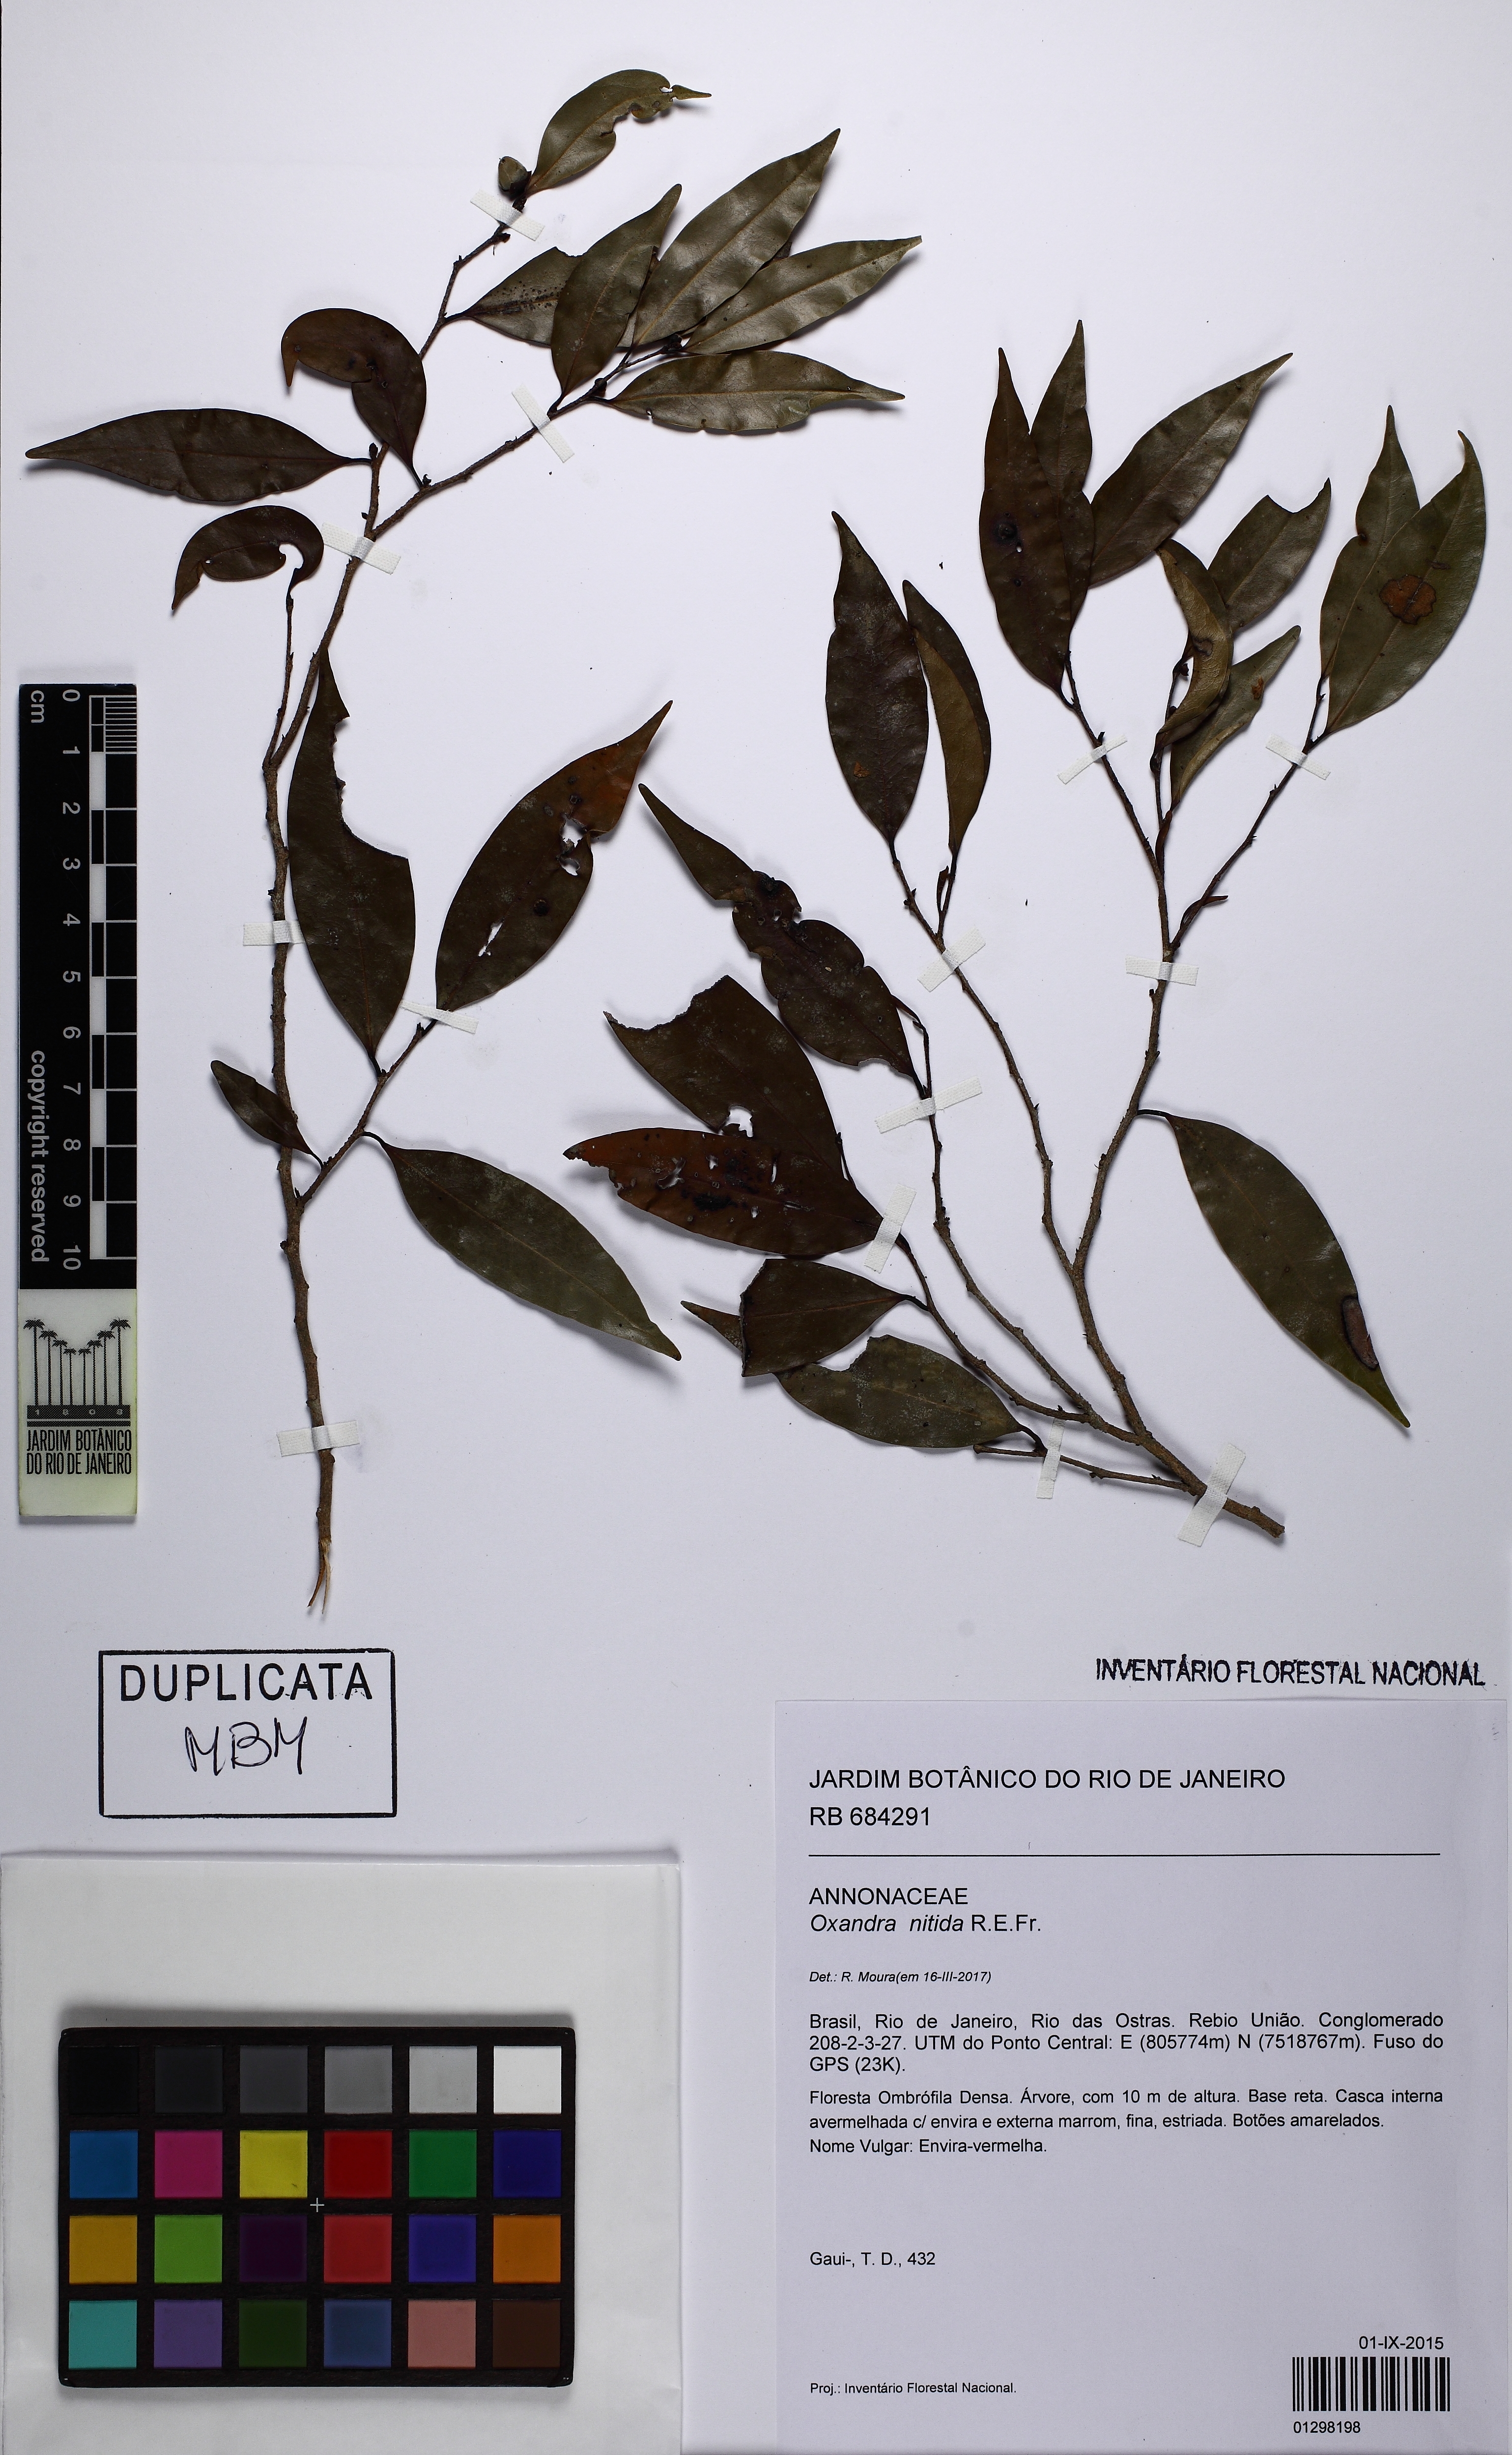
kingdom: Plantae
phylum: Tracheophyta
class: Magnoliopsida
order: Magnoliales
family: Annonaceae
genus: Oxandra
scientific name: Oxandra nitida
